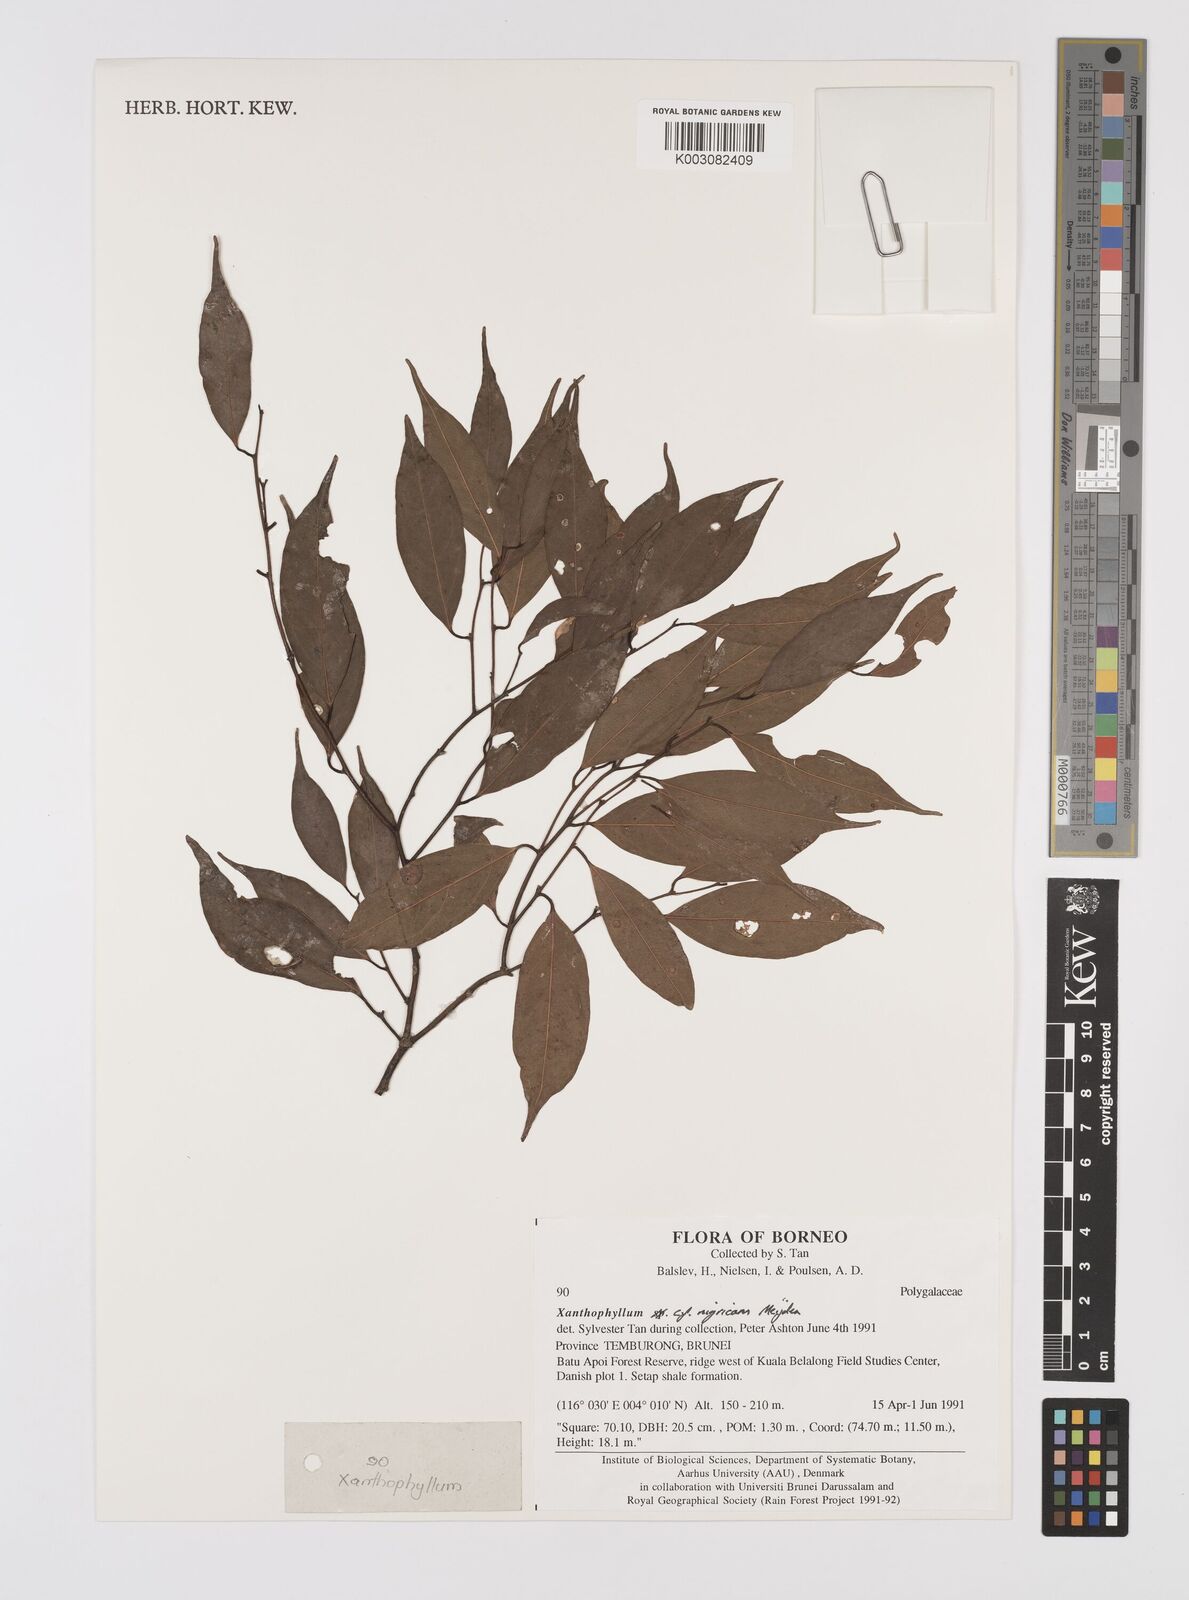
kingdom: Plantae
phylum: Tracheophyta
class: Magnoliopsida
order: Fabales
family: Polygalaceae
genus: Xanthophyllum
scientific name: Xanthophyllum nigricans
